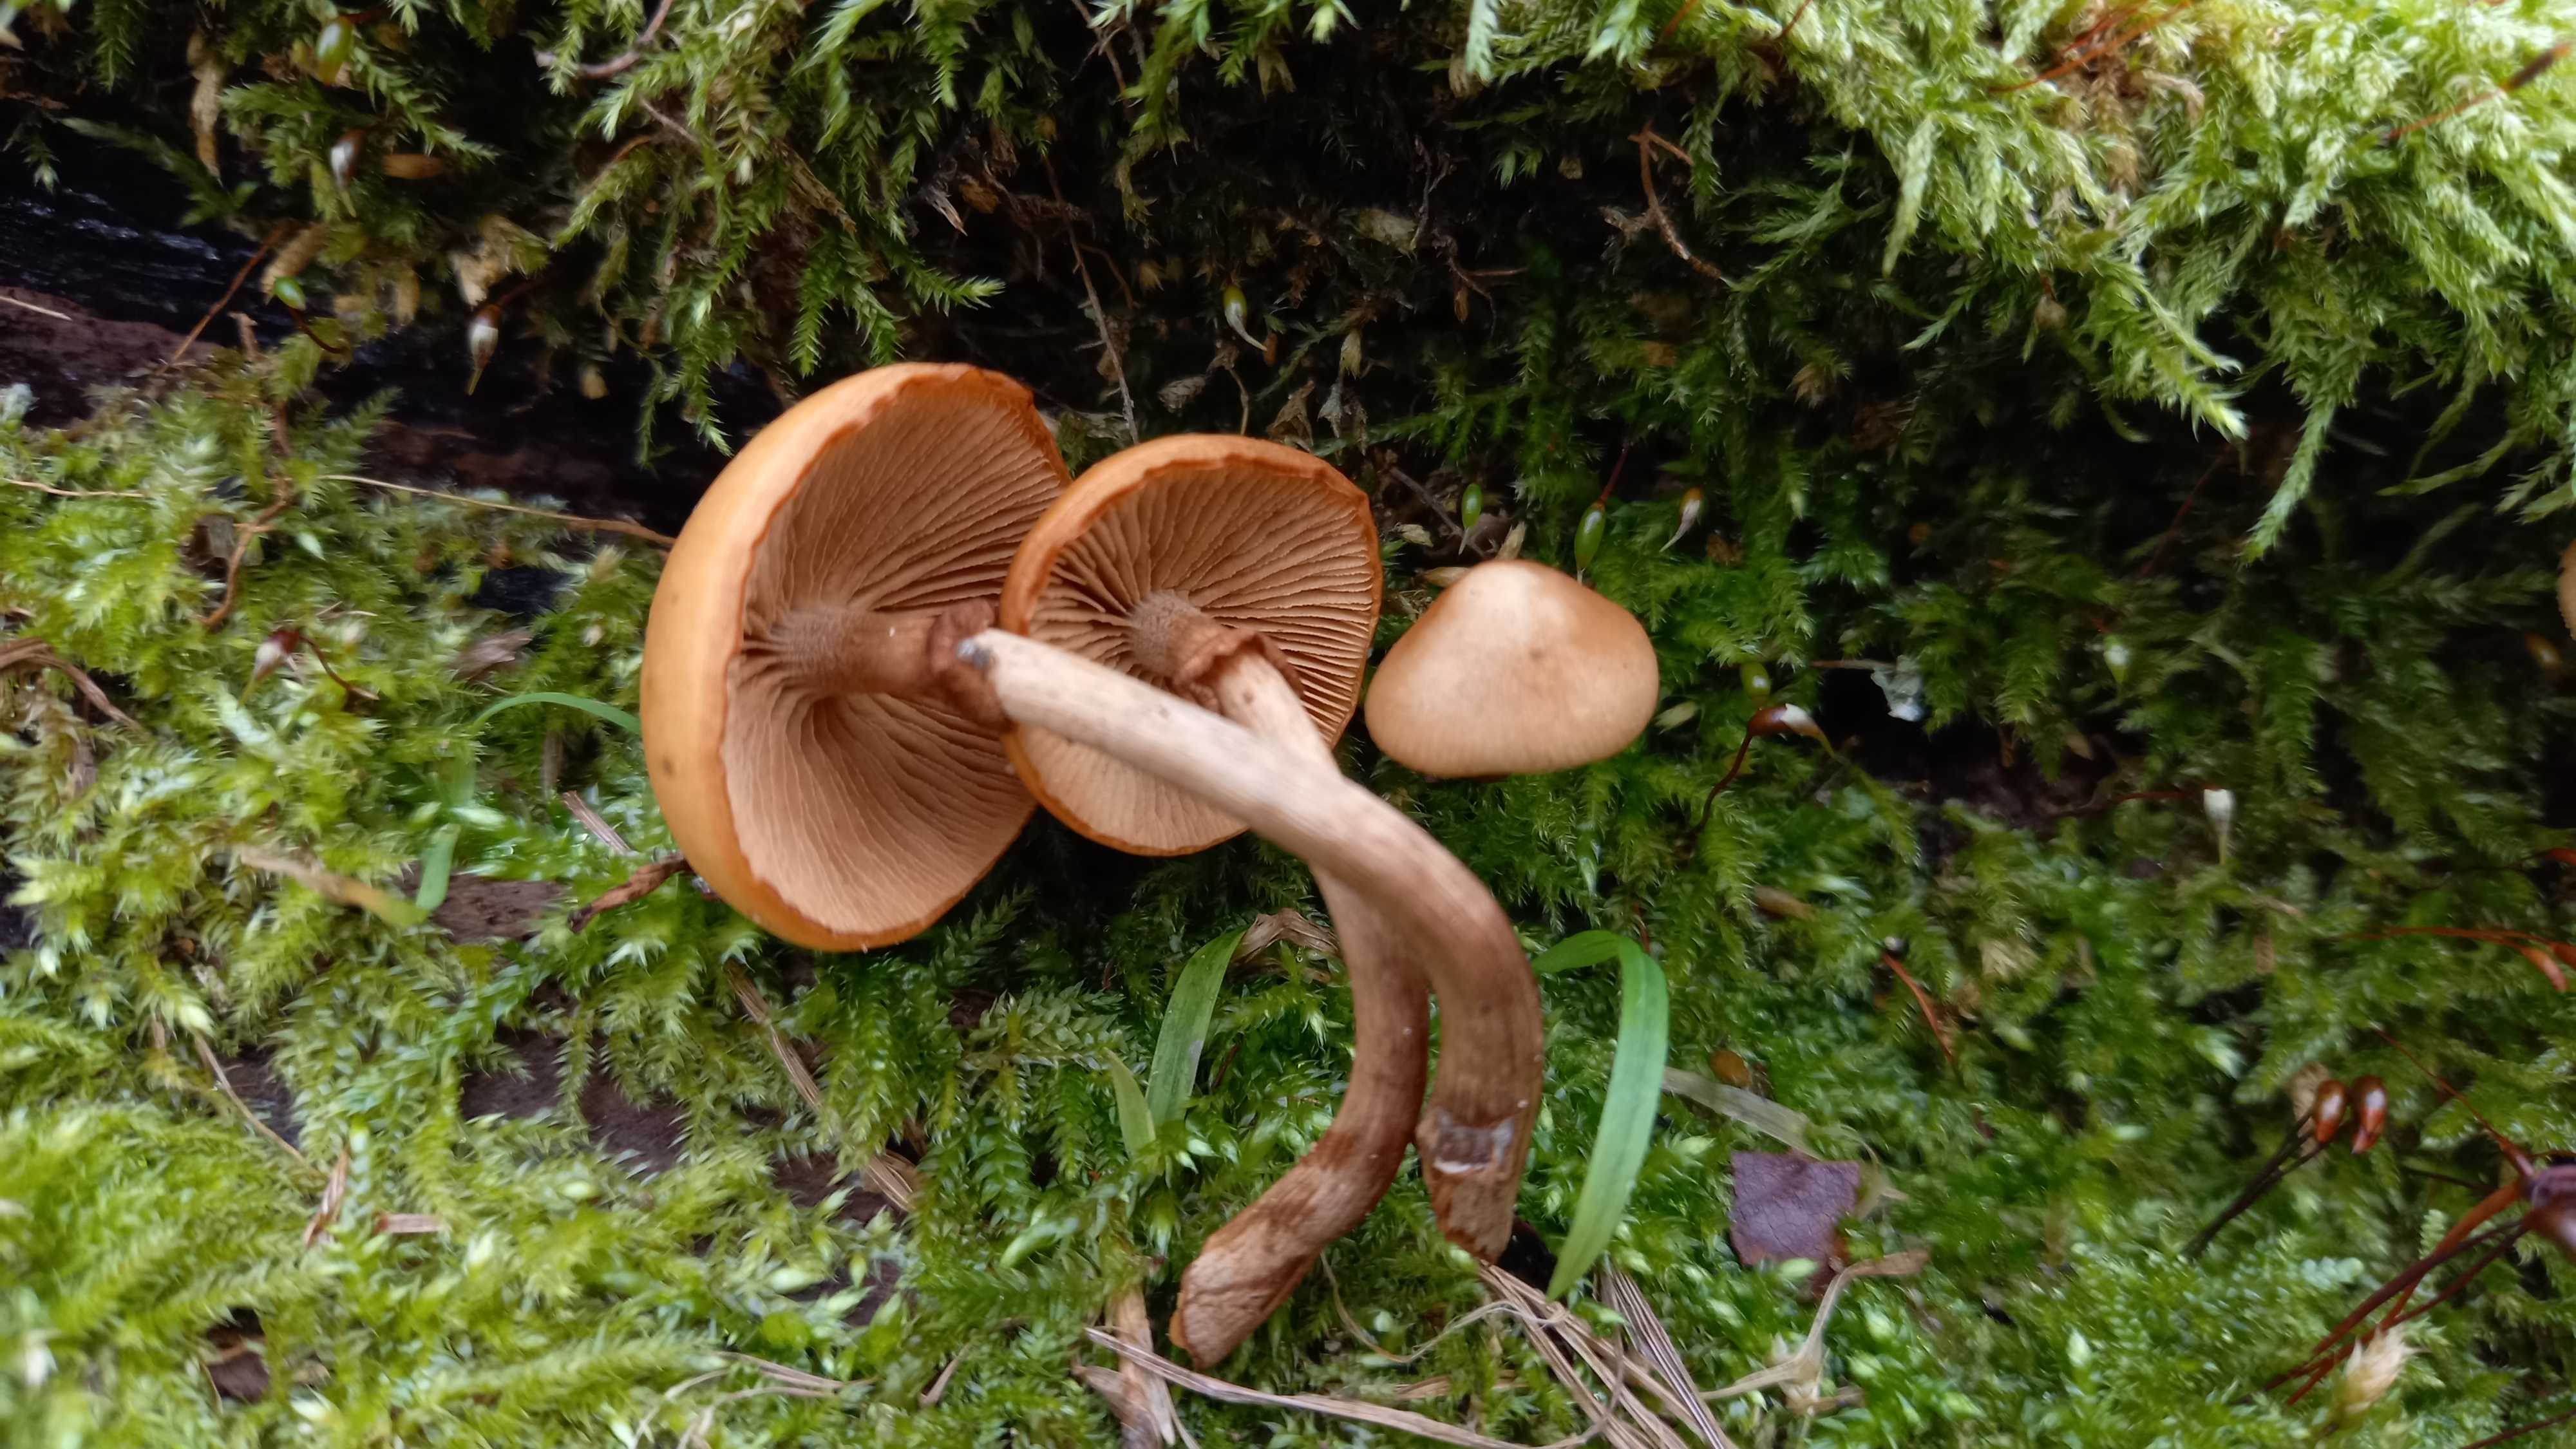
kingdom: Fungi
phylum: Basidiomycota
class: Agaricomycetes
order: Agaricales
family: Hymenogastraceae
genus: Galerina
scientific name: Galerina marginata
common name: randbæltet hjelmhat
